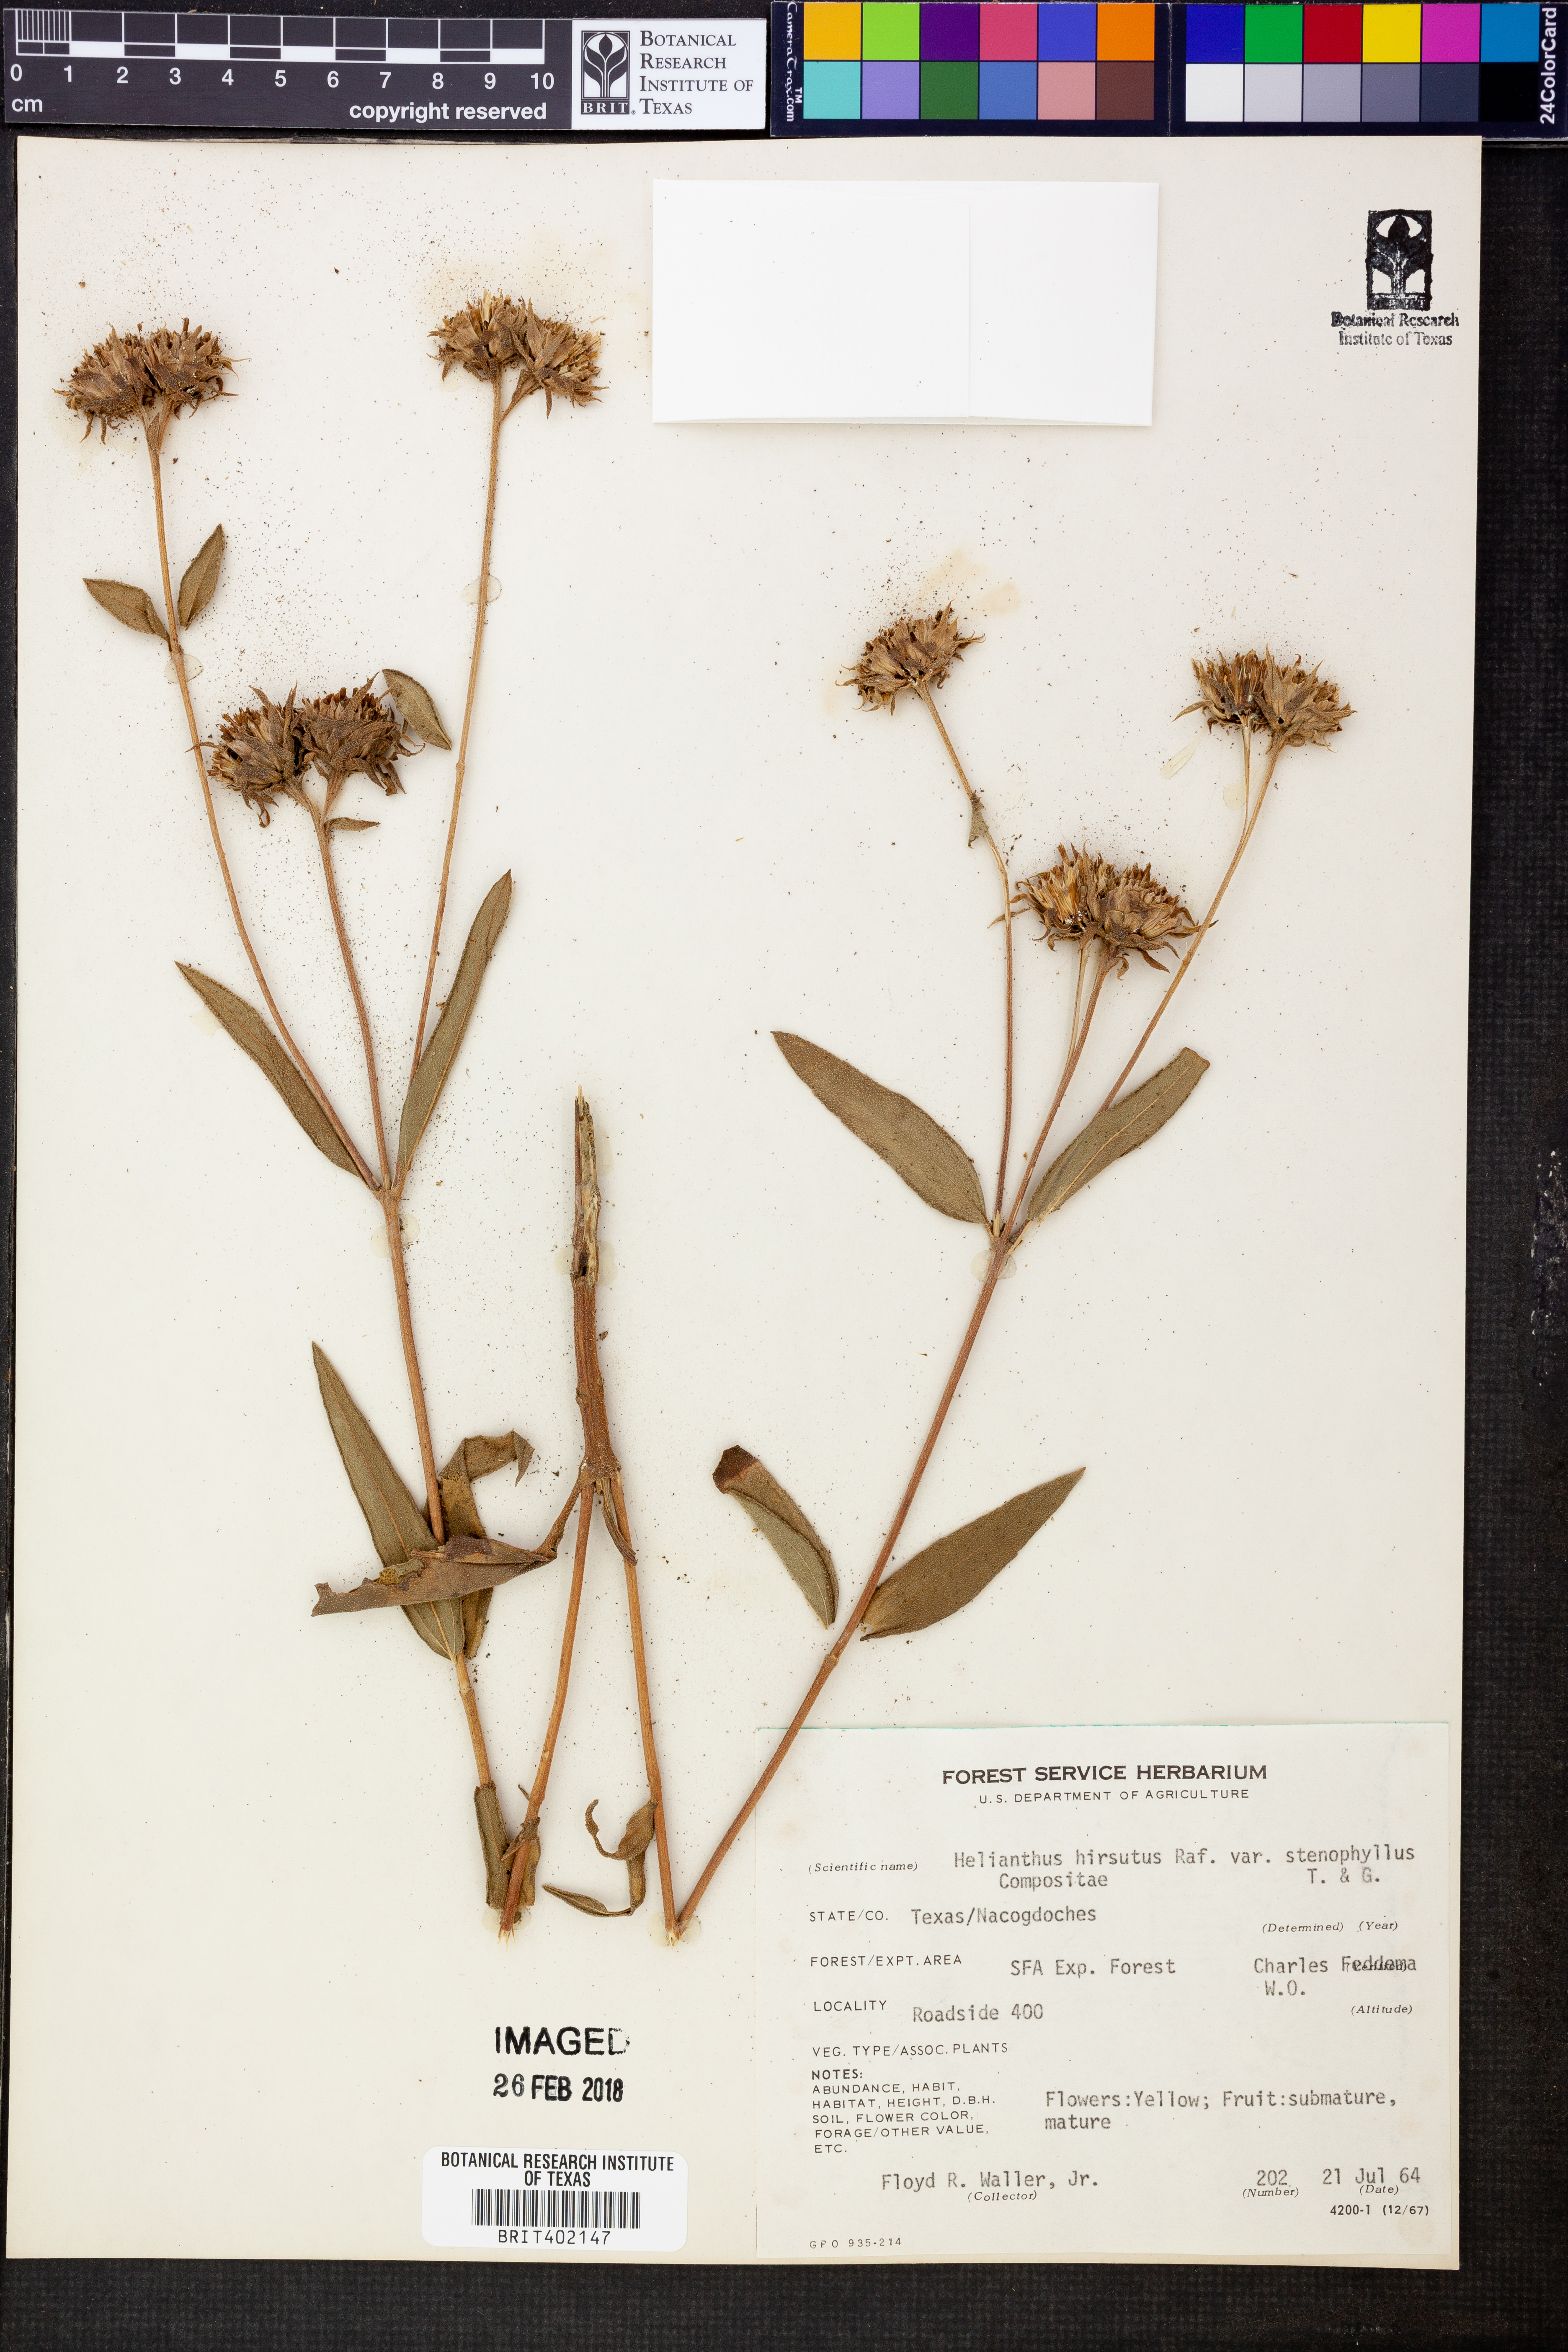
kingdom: Plantae
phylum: Tracheophyta
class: Magnoliopsida
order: Asterales
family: Asteraceae
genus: Helianthus
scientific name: Helianthus hirsutus
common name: Hairy sunflower
